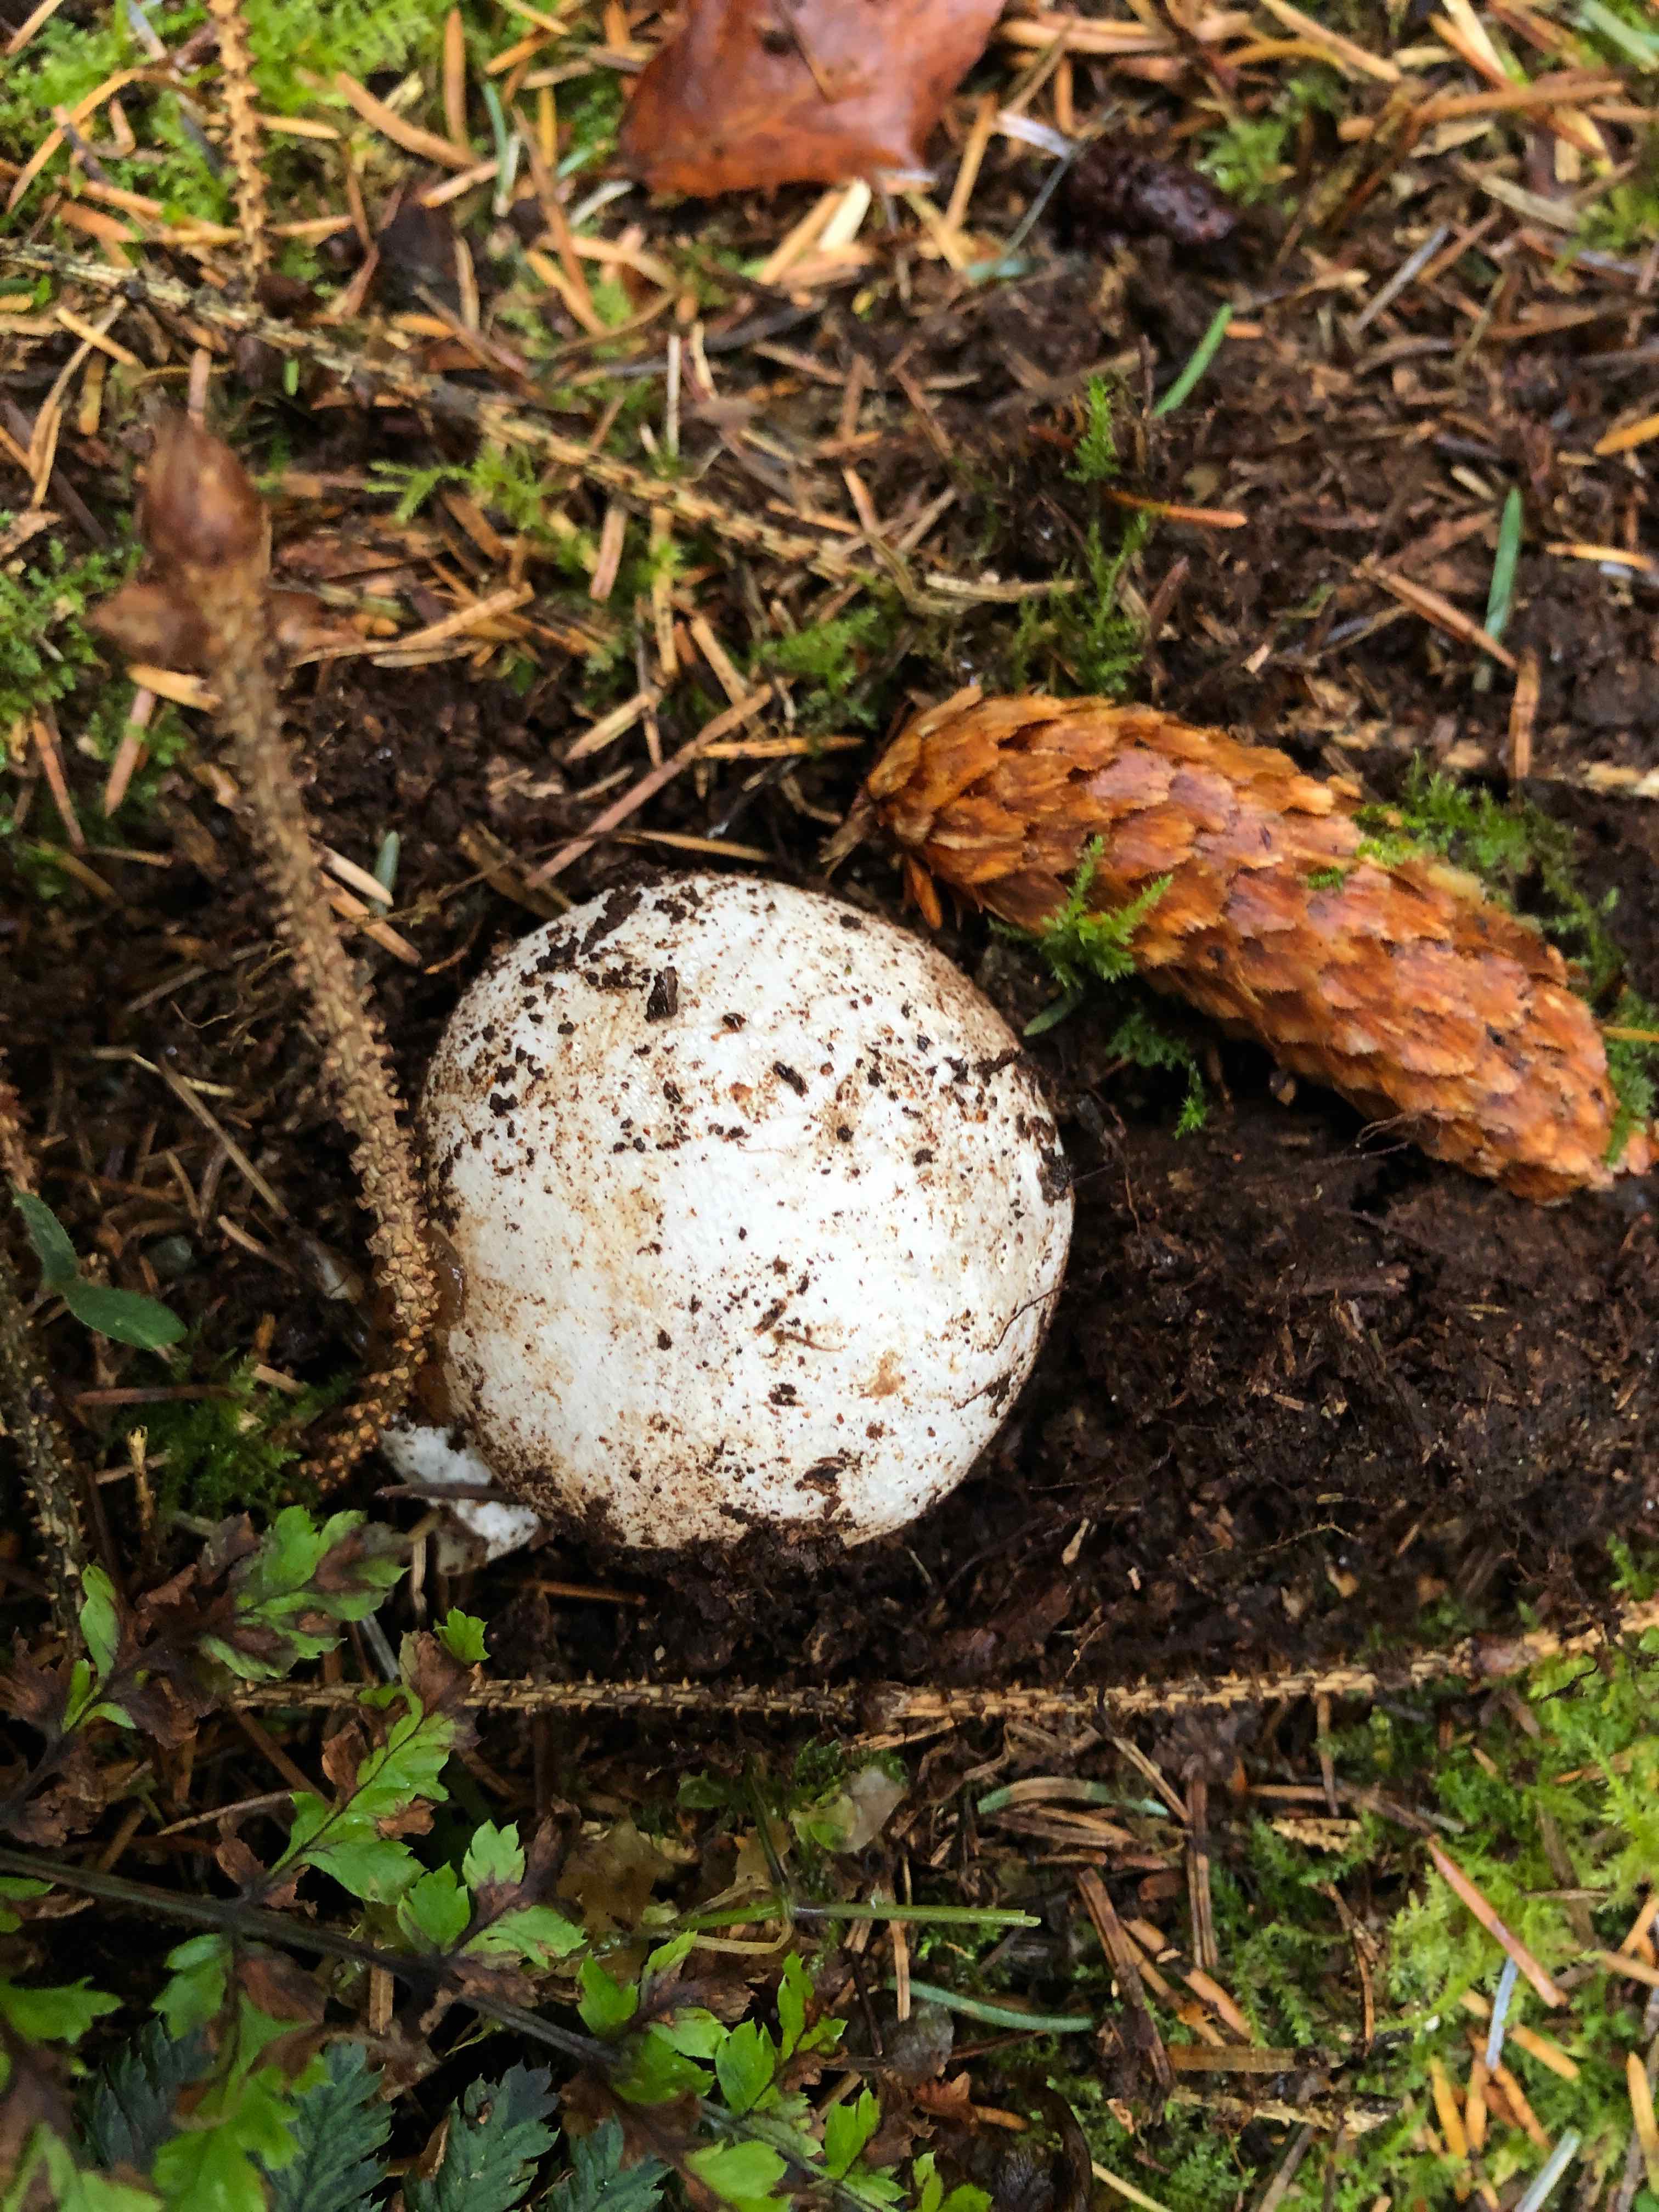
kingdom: Fungi
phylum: Basidiomycota
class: Agaricomycetes
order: Phallales
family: Phallaceae
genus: Phallus
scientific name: Phallus impudicus
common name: almindelig stinksvamp
